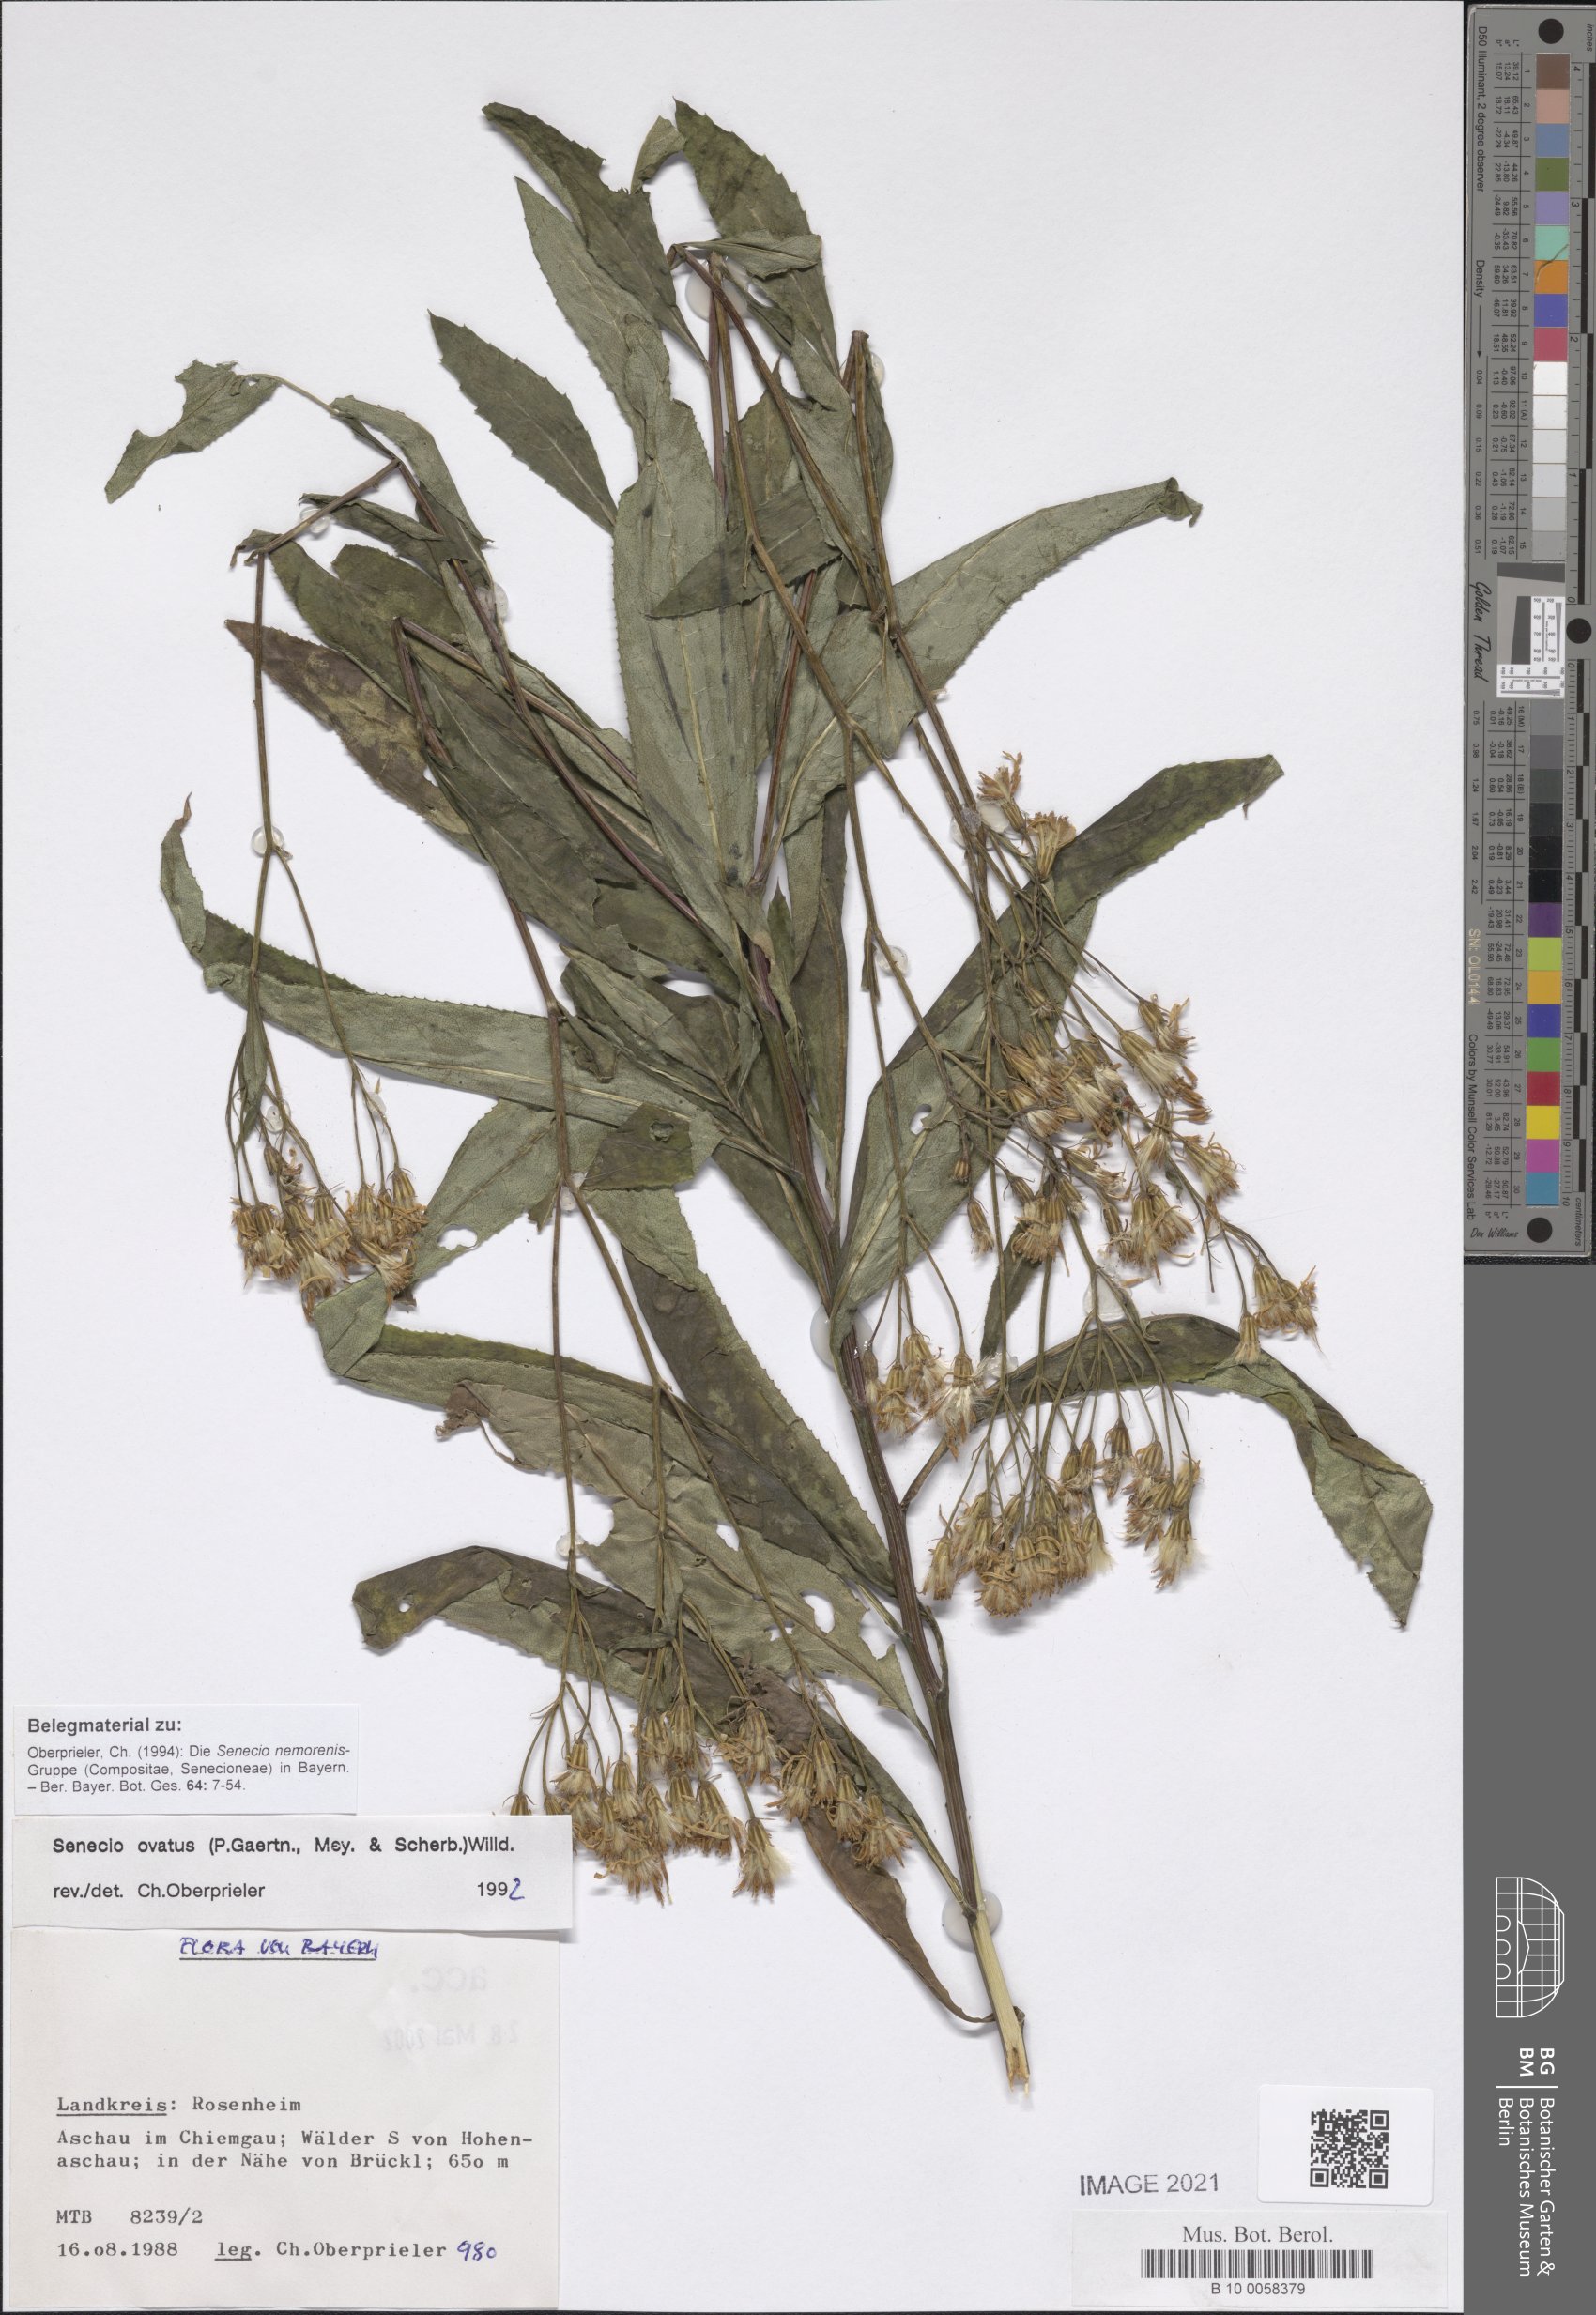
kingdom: Plantae
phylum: Tracheophyta
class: Magnoliopsida
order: Asterales
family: Asteraceae
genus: Senecio
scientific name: Senecio ovatus
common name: Wood ragwort
